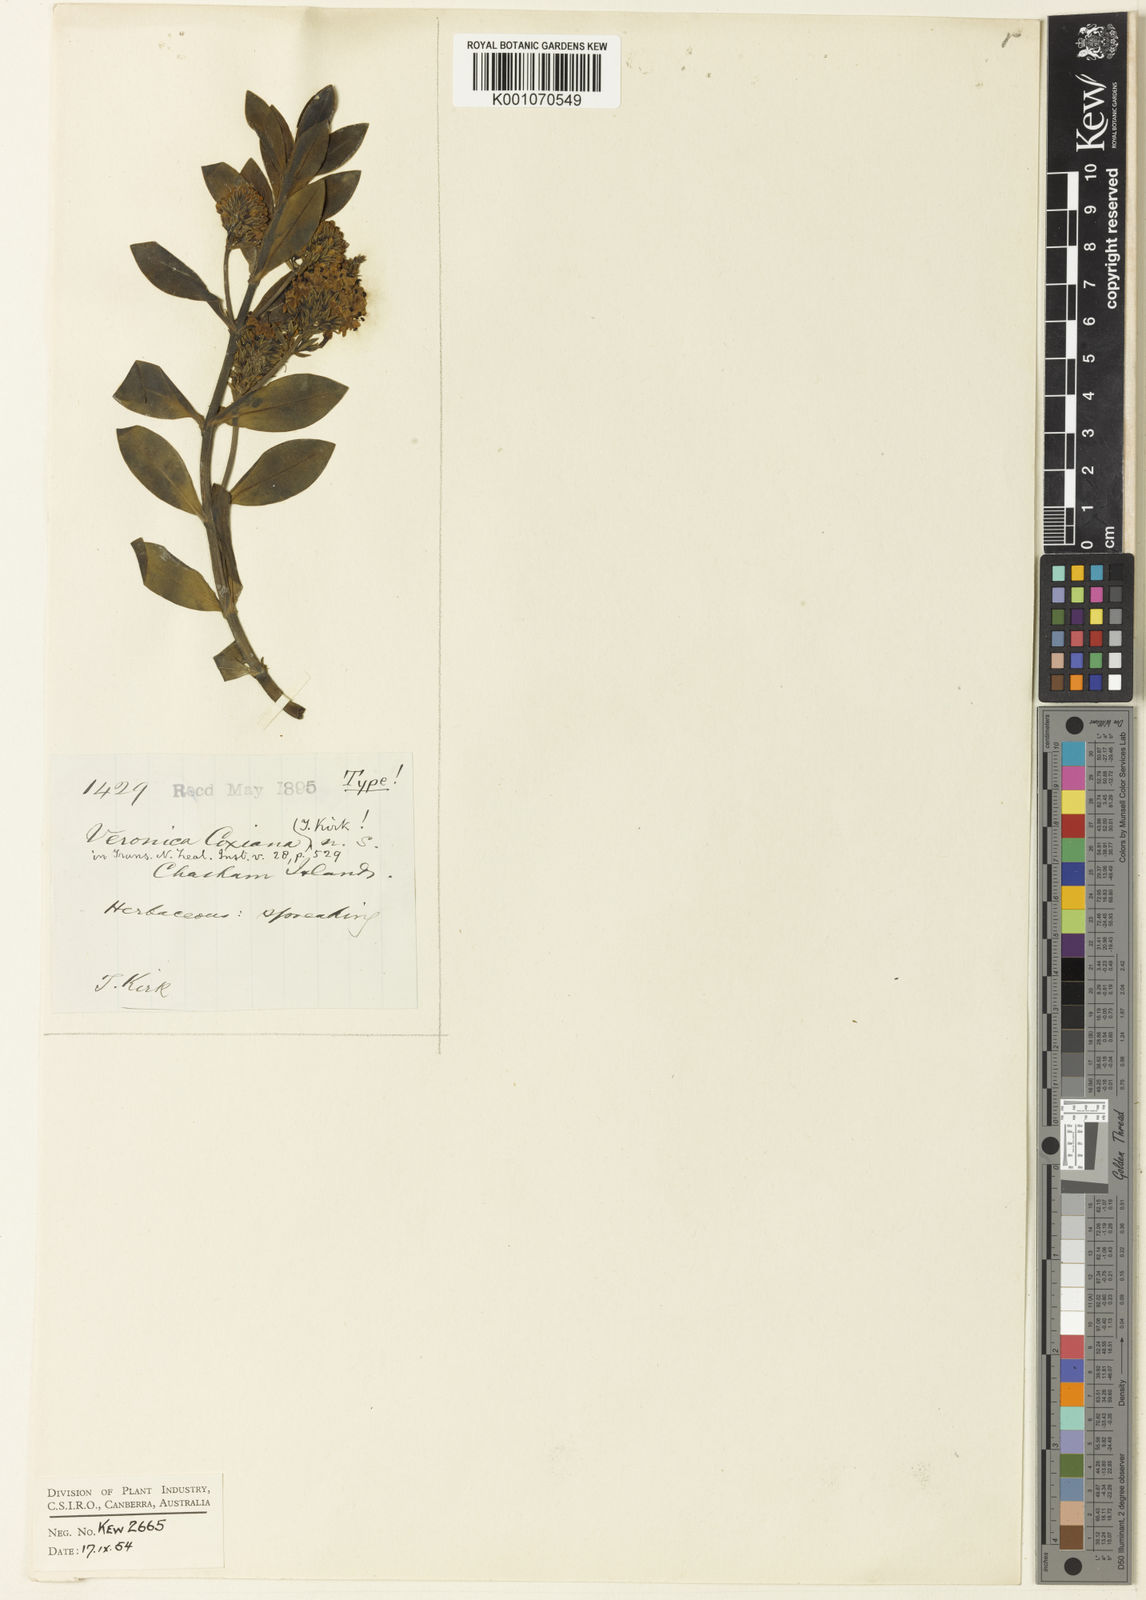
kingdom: Plantae
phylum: Tracheophyta
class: Magnoliopsida
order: Lamiales
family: Plantaginaceae
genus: Veronica
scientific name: Veronica chathamica
